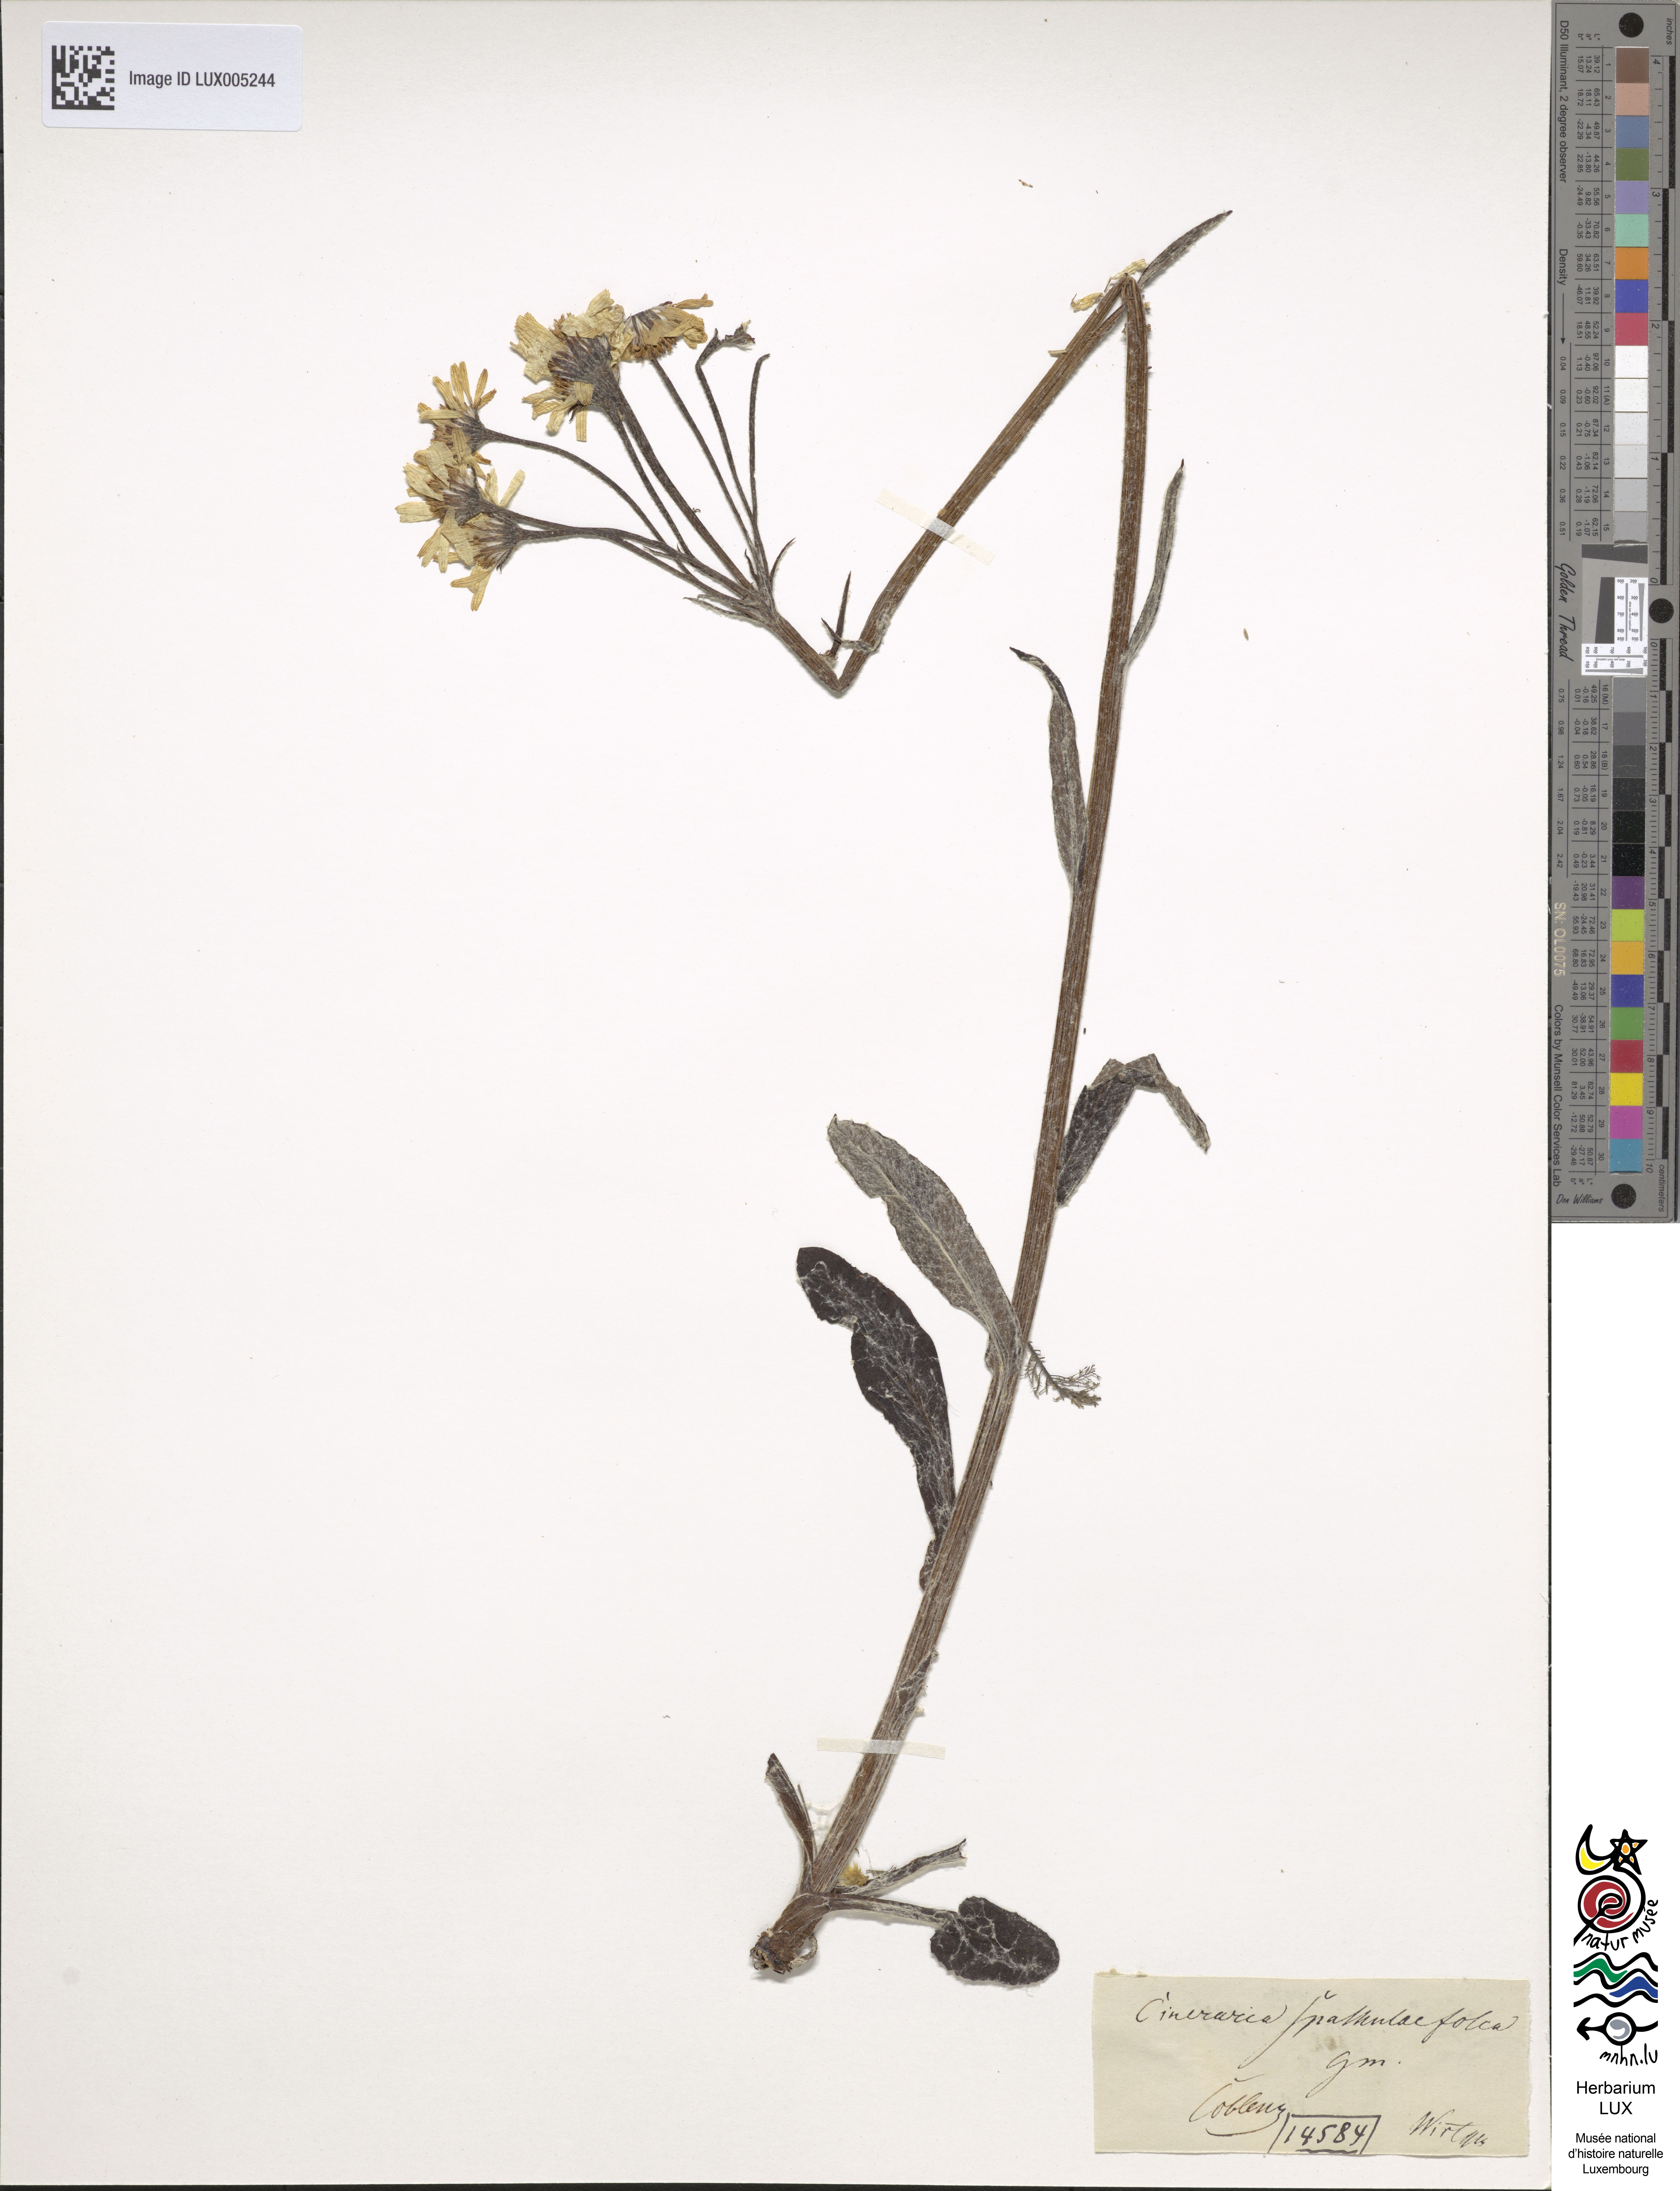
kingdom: Plantae
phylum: Tracheophyta
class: Magnoliopsida
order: Asterales
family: Asteraceae
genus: Senecio
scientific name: Senecio spathulaefolius
